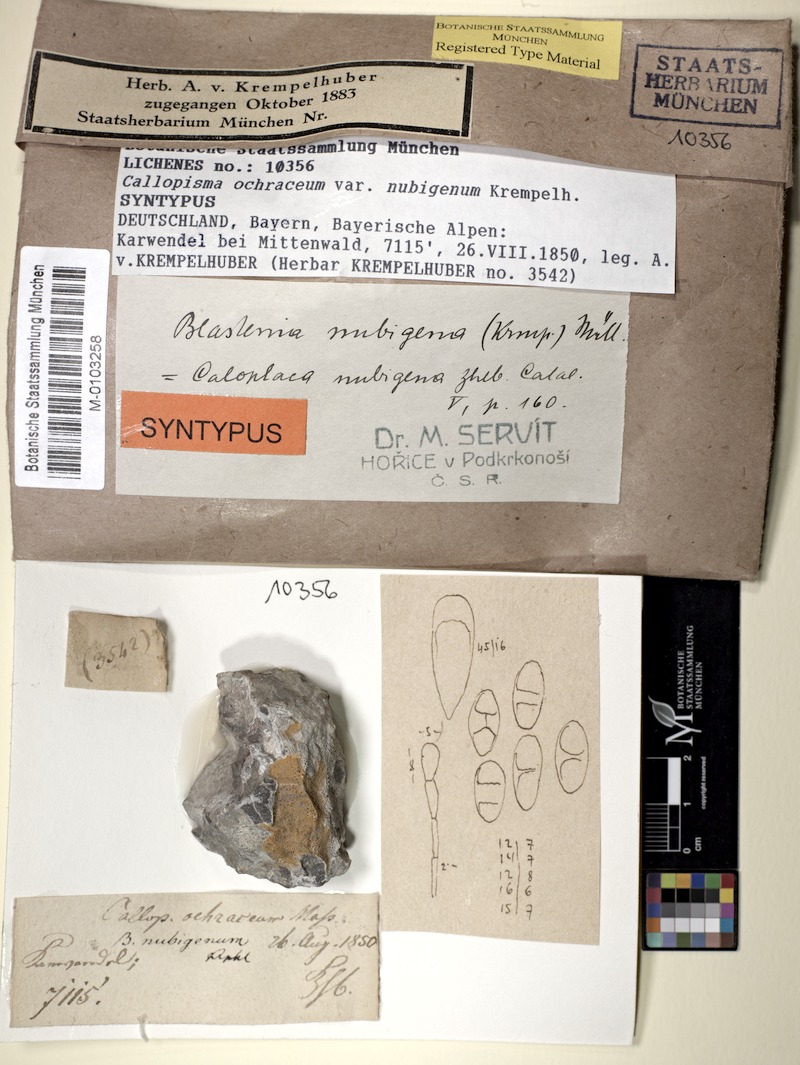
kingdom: Fungi
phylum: Ascomycota
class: Lecanoromycetes
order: Teloschistales
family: Teloschistaceae
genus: Caloplaca
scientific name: Caloplaca nubigena
